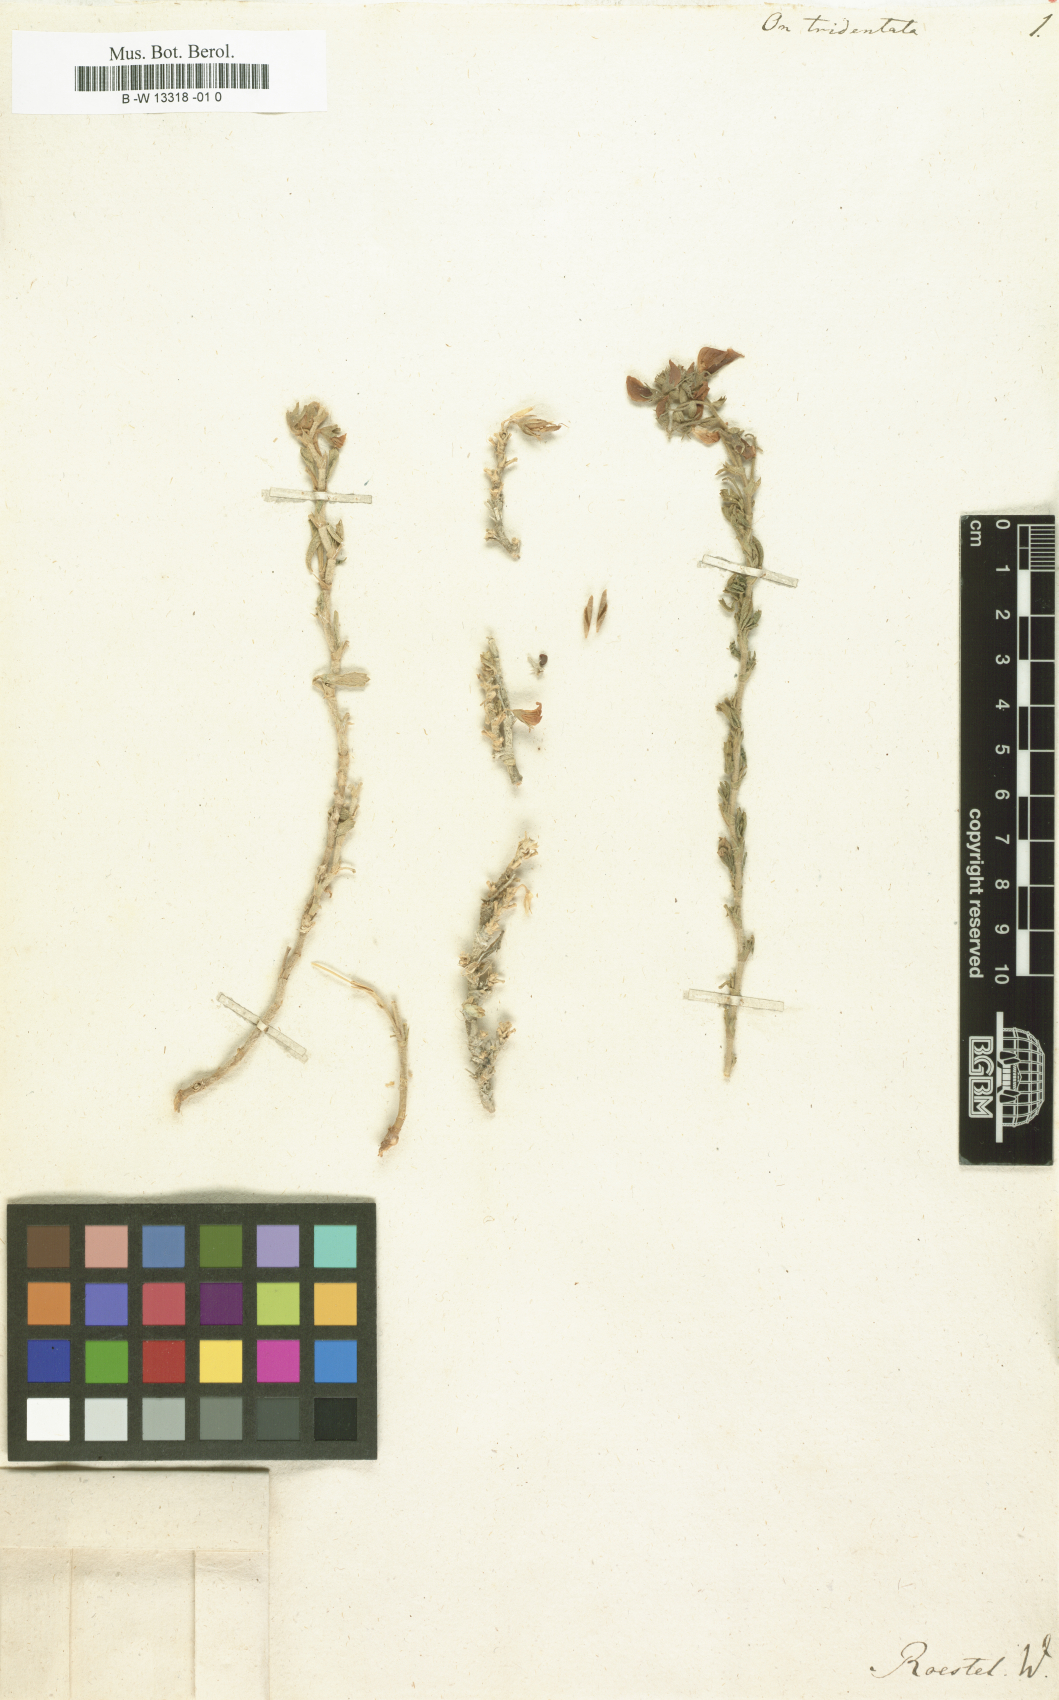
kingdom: Plantae
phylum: Tracheophyta
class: Magnoliopsida
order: Fabales
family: Fabaceae
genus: Ononis
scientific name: Ononis tridentata
